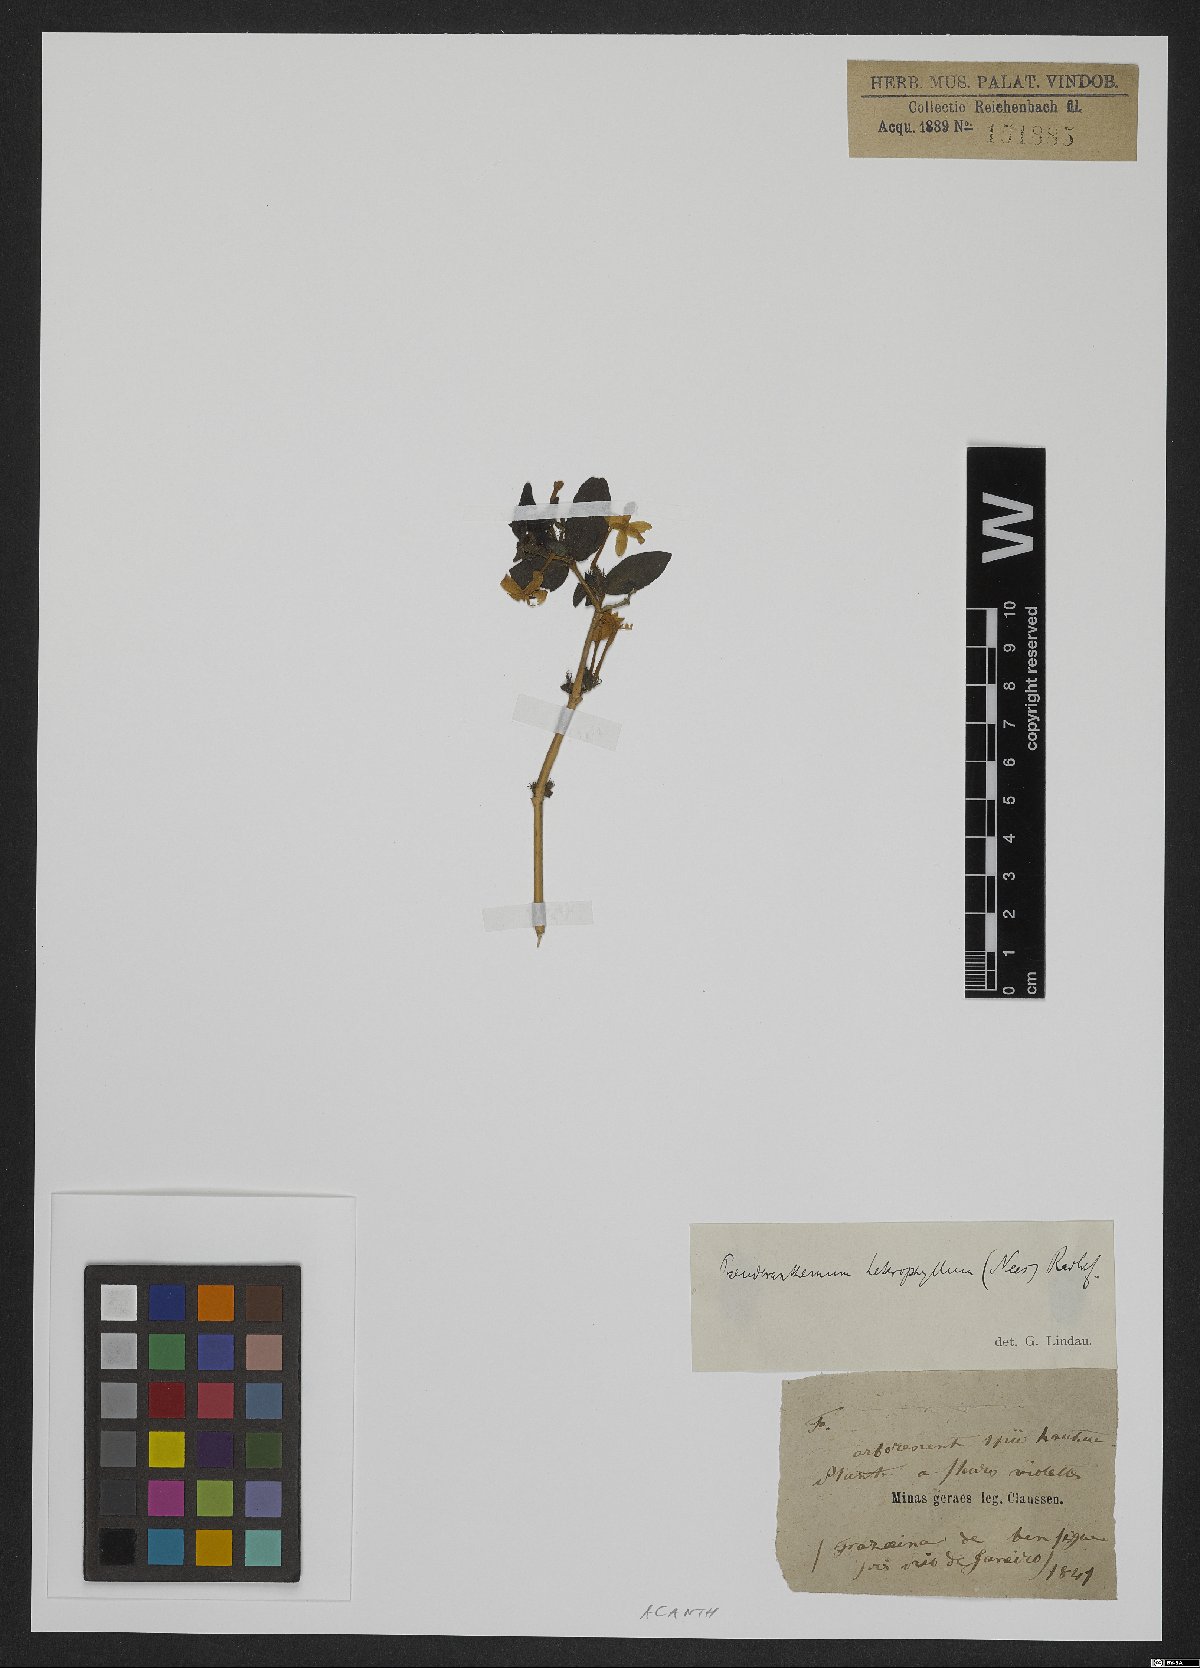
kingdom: Plantae
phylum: Tracheophyta
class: Magnoliopsida
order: Lamiales
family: Acanthaceae
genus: Pseuderanthemum
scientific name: Pseuderanthemum heterophyllum
